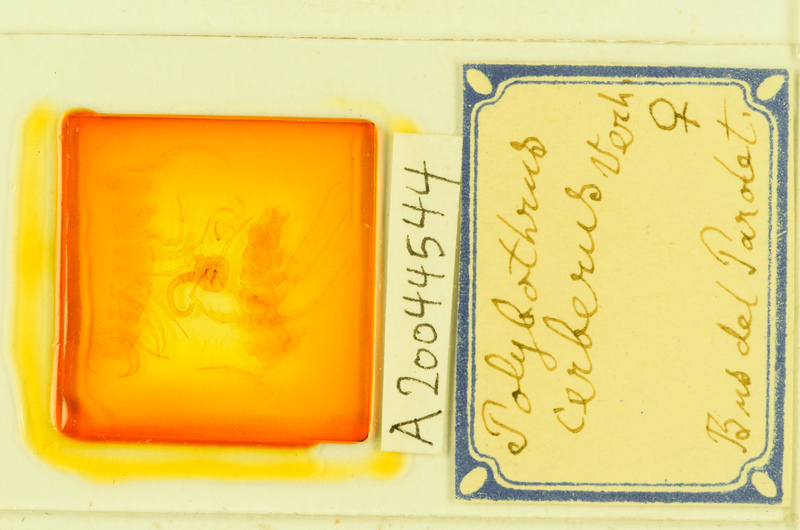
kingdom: Animalia
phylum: Arthropoda
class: Chilopoda
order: Lithobiomorpha
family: Lithobiidae
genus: Polybothrus
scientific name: Polybothrus cerberus
